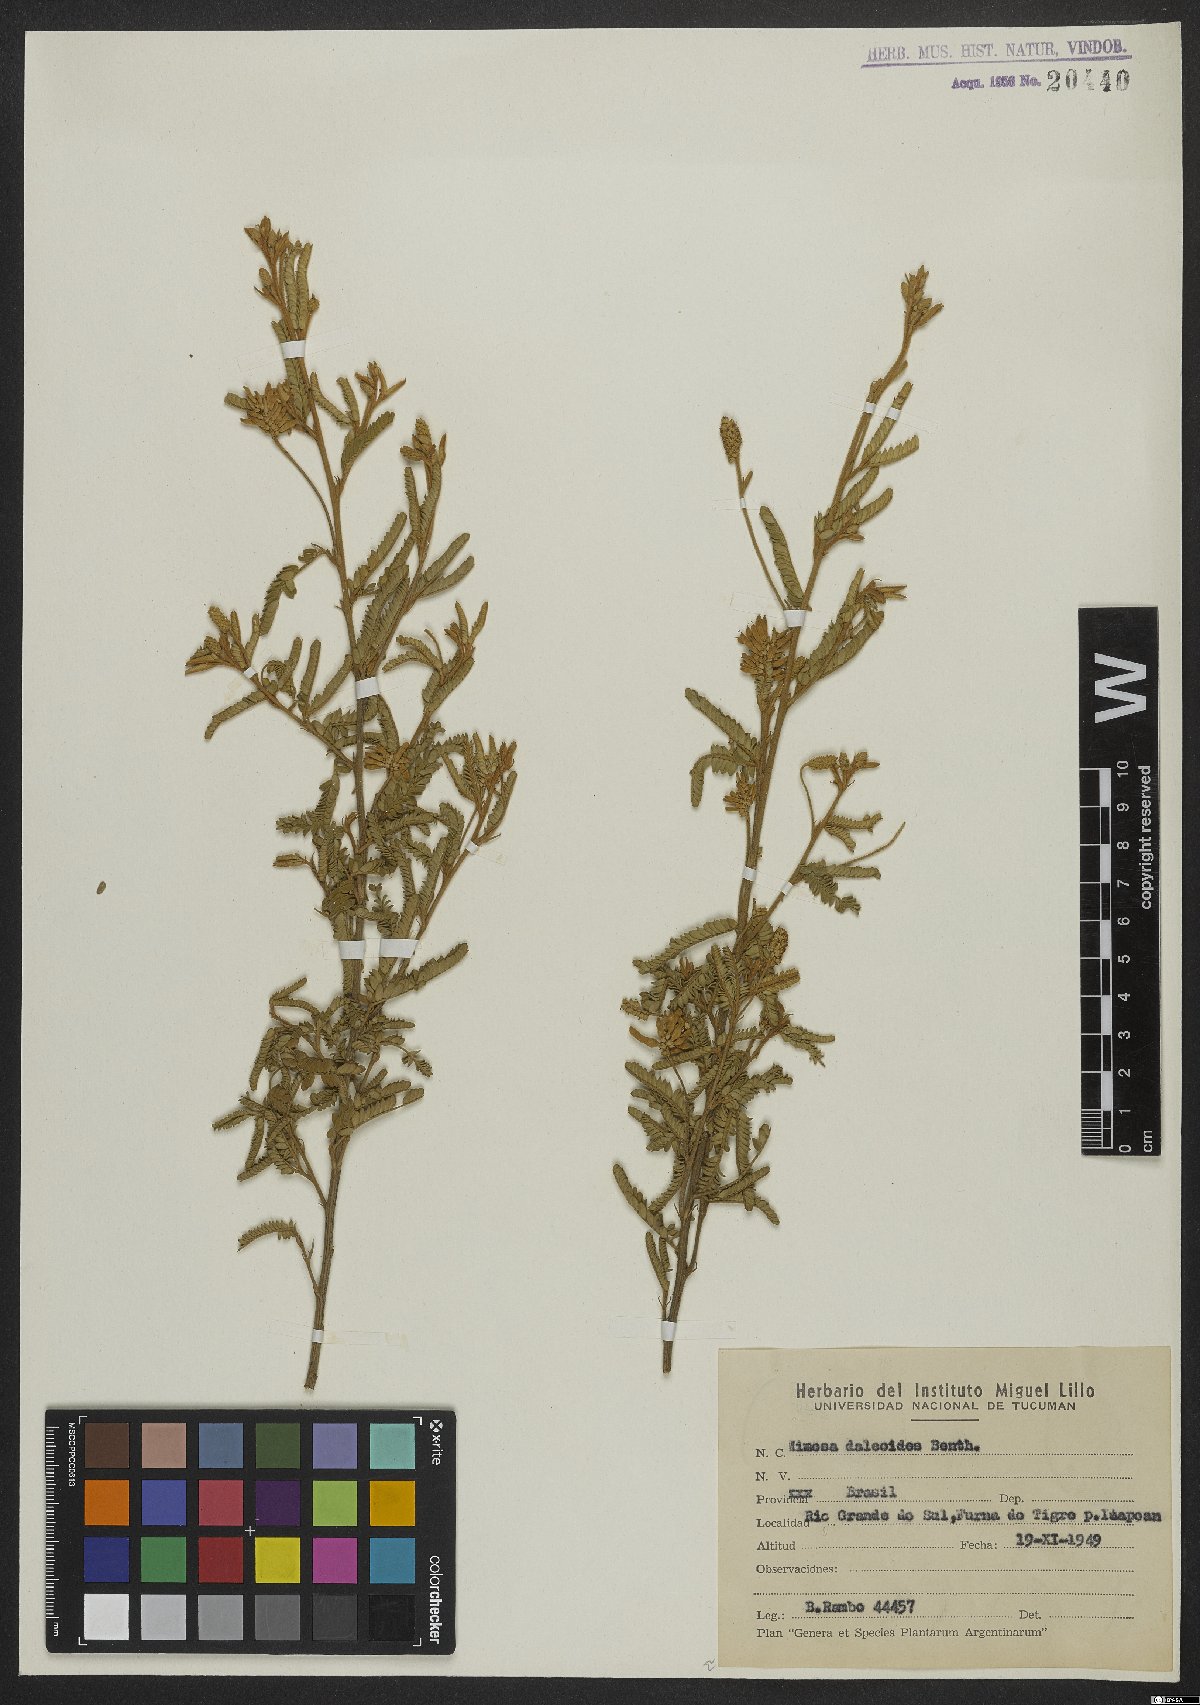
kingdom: Plantae
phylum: Tracheophyta
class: Magnoliopsida
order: Fabales
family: Fabaceae
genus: Mimosa
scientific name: Mimosa daleoides
